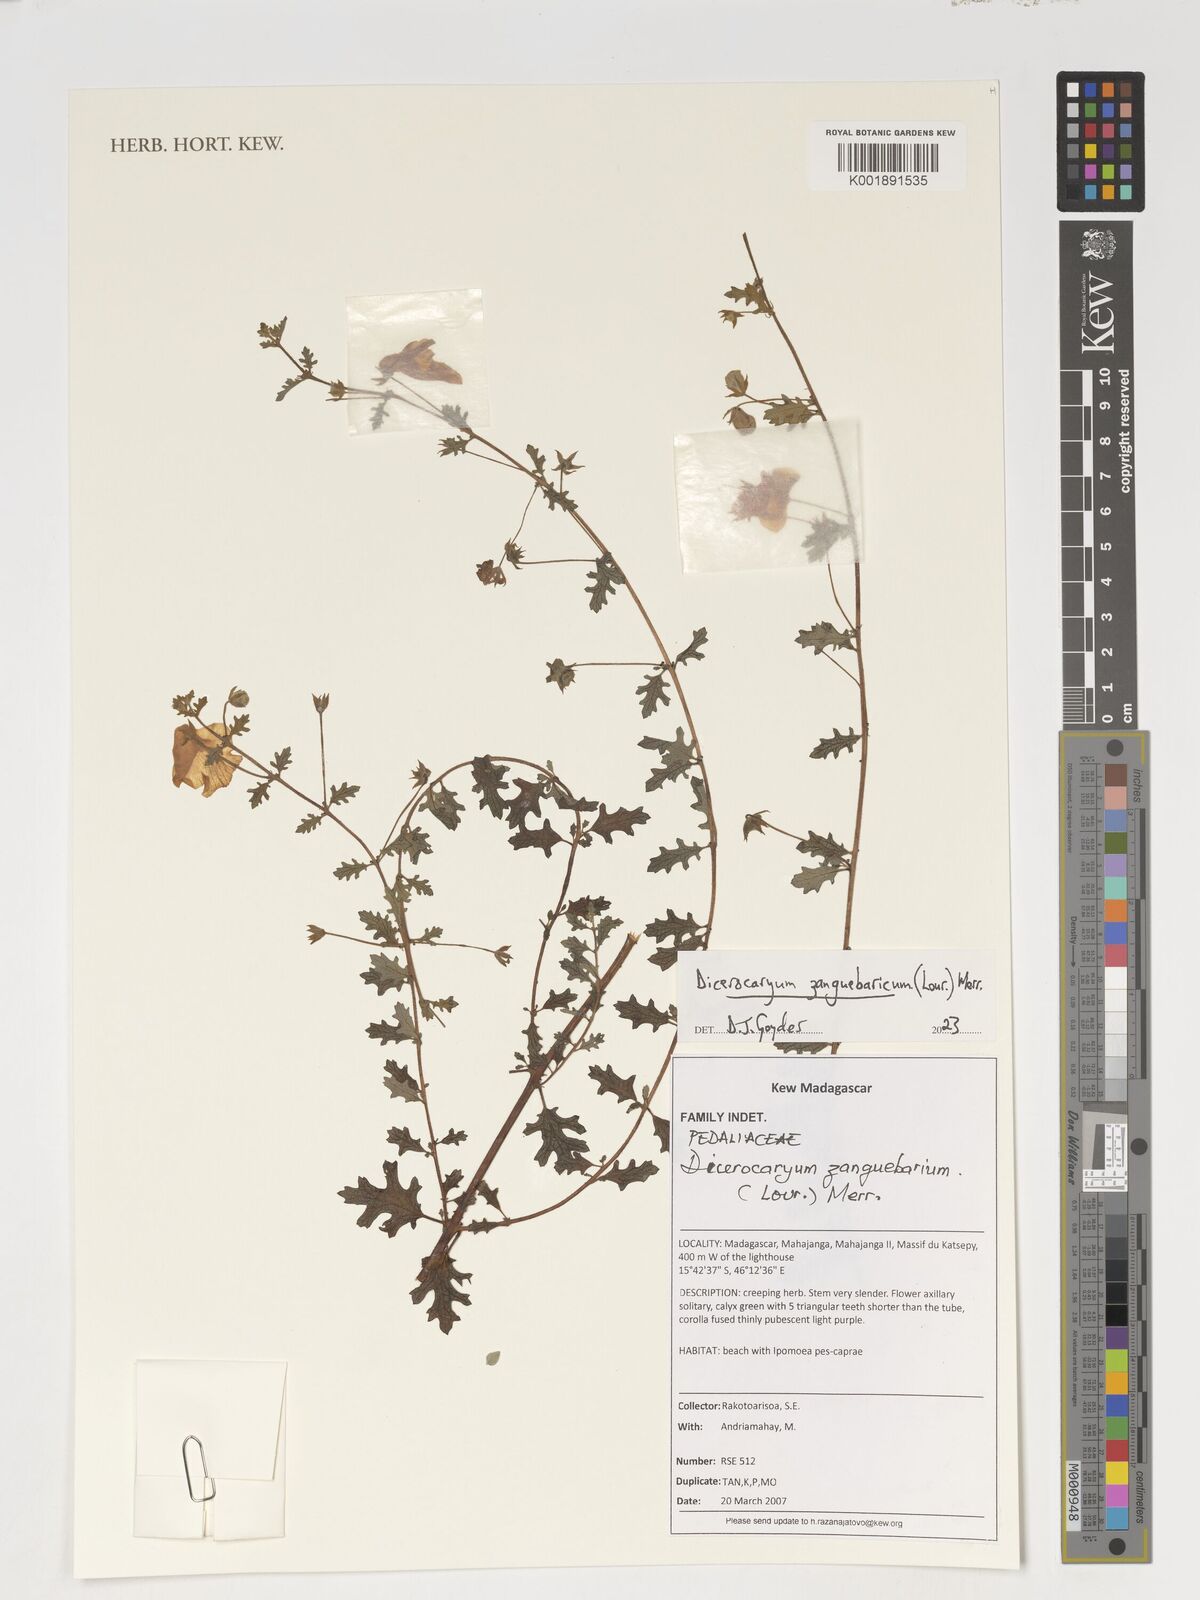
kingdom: Plantae
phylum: Tracheophyta
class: Magnoliopsida
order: Lamiales
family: Pedaliaceae
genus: Dicerocaryum
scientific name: Dicerocaryum zanguebarium
